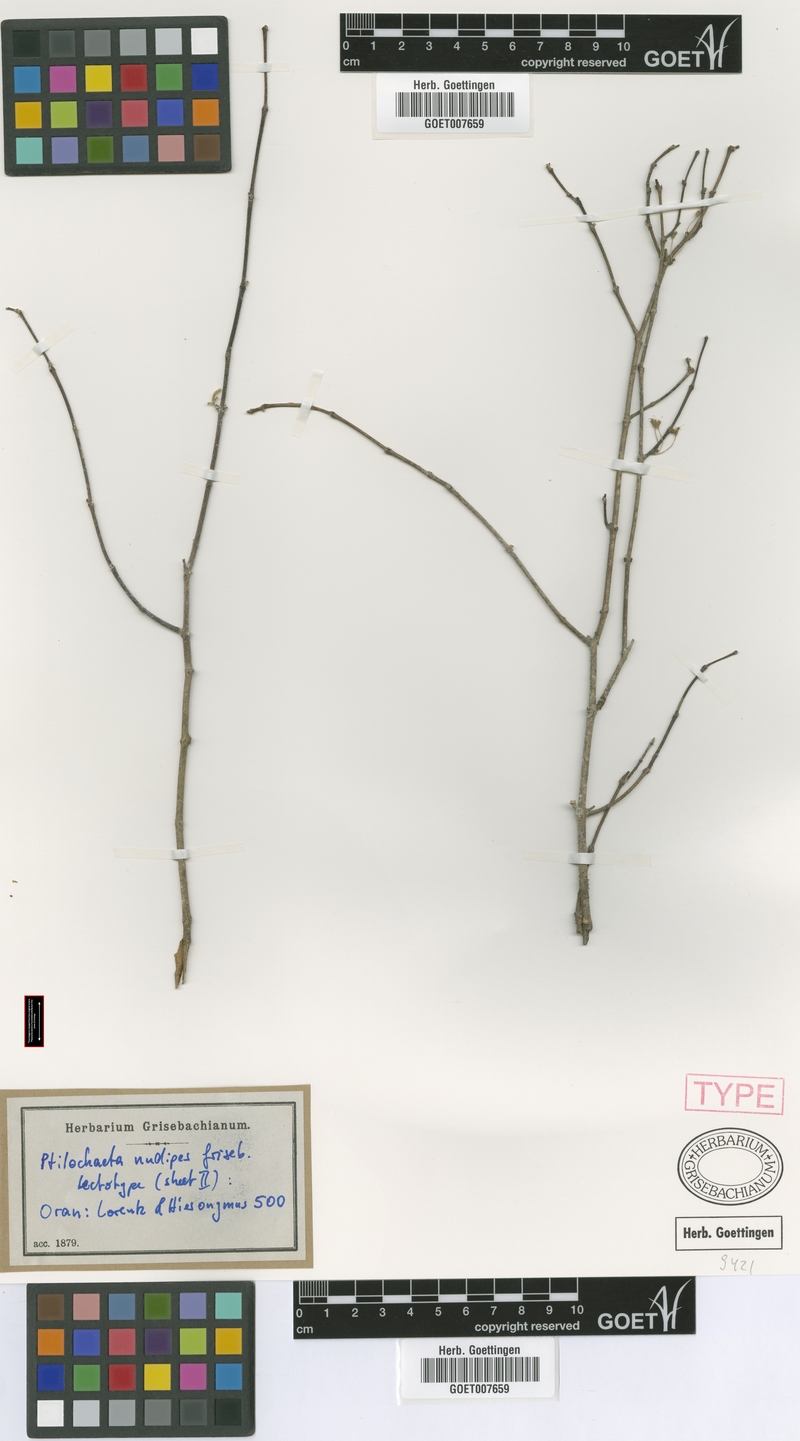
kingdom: Plantae
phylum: Tracheophyta
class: Magnoliopsida
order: Malpighiales
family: Malpighiaceae
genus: Ptilochaeta
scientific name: Ptilochaeta nudipes
